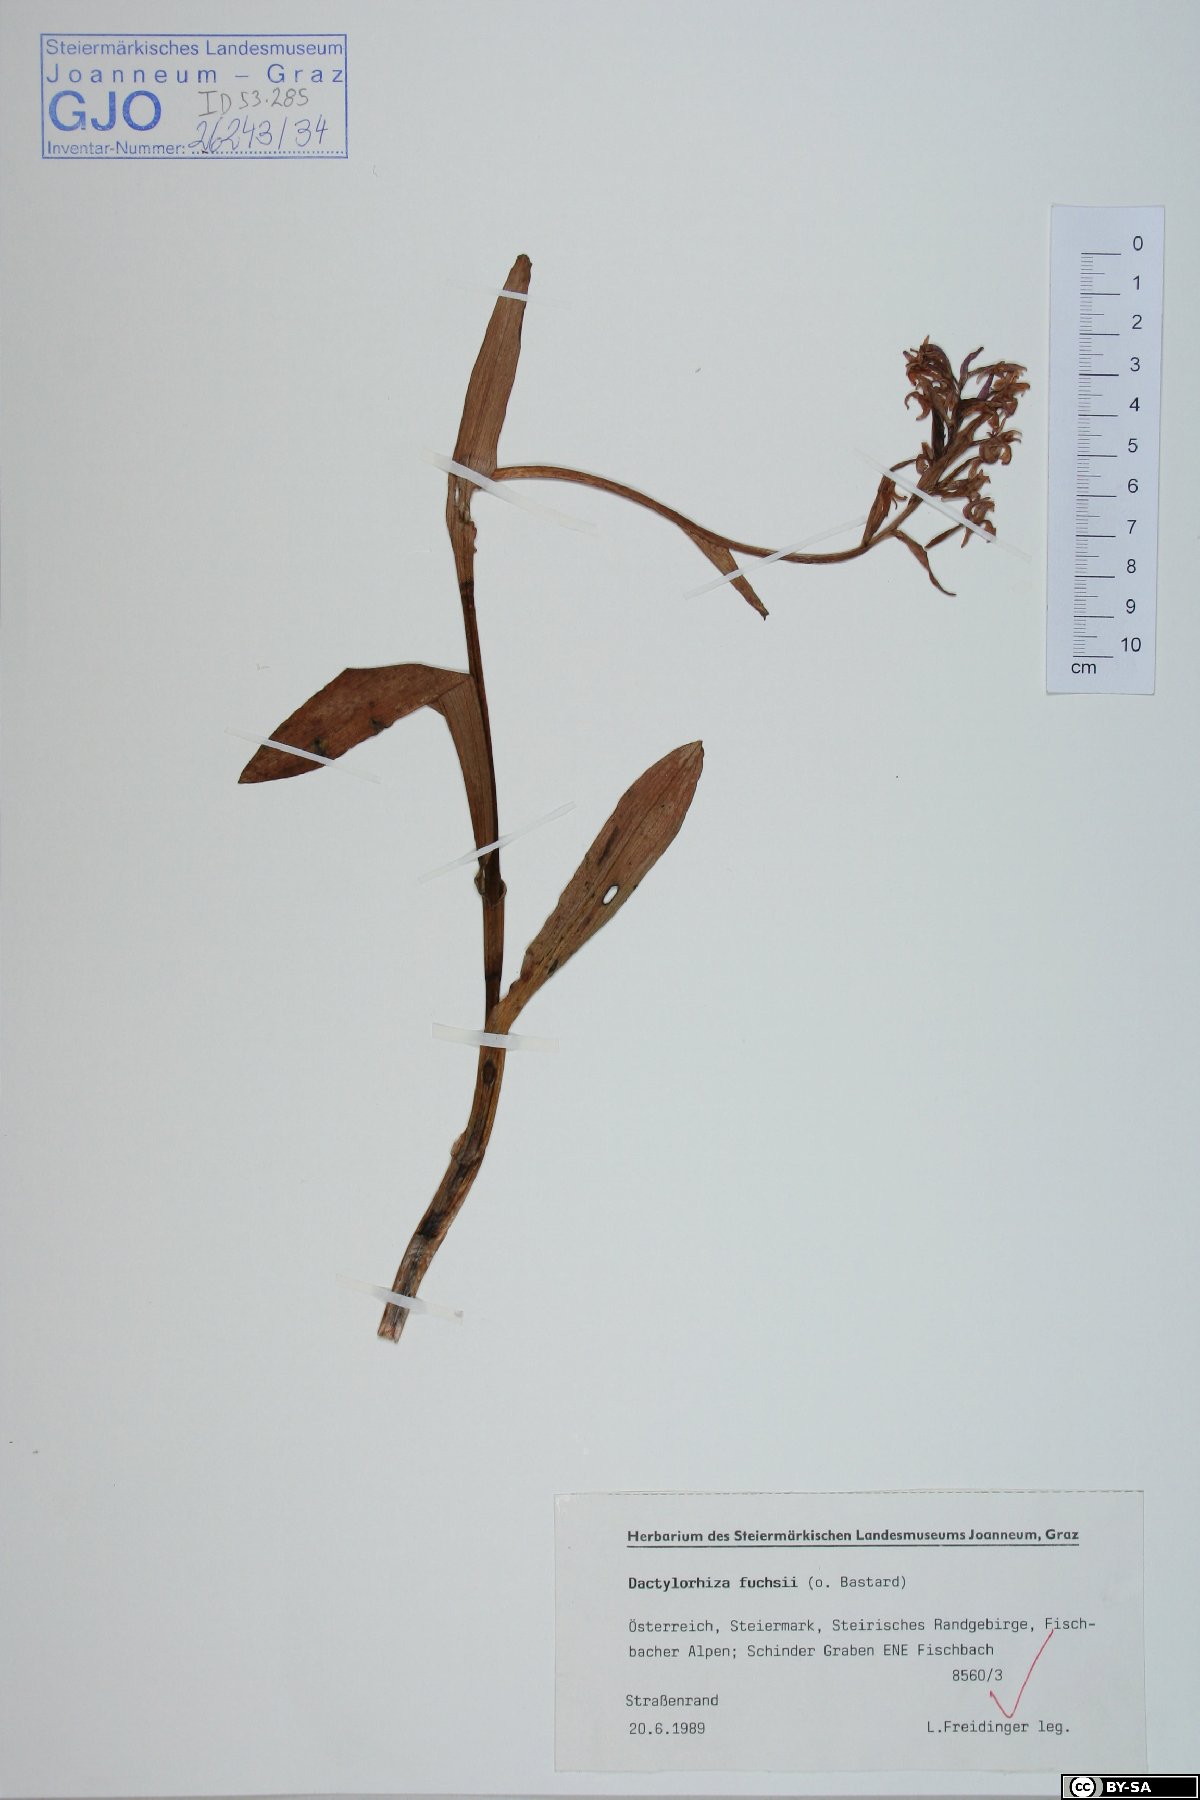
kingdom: Plantae
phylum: Tracheophyta
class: Liliopsida
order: Asparagales
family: Orchidaceae
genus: Dactylorhiza
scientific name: Dactylorhiza maculata
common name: Heath spotted-orchid
